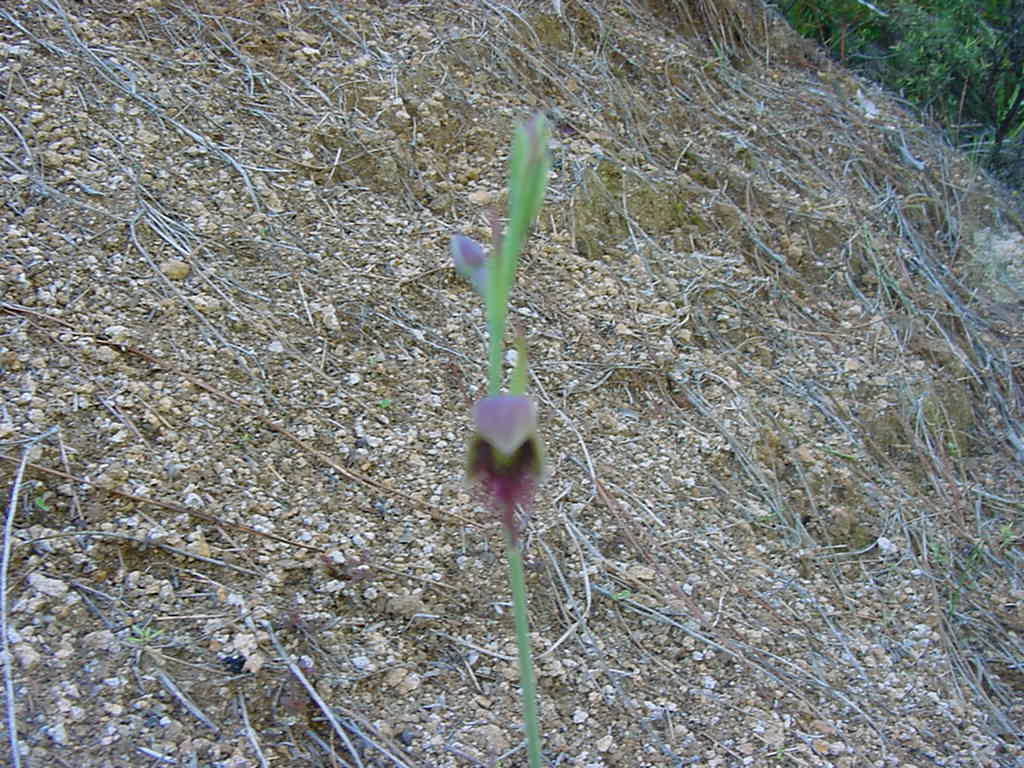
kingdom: Plantae
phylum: Tracheophyta
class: Liliopsida
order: Asparagales
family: Orchidaceae
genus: Calochilus
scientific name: Calochilus paludosus
